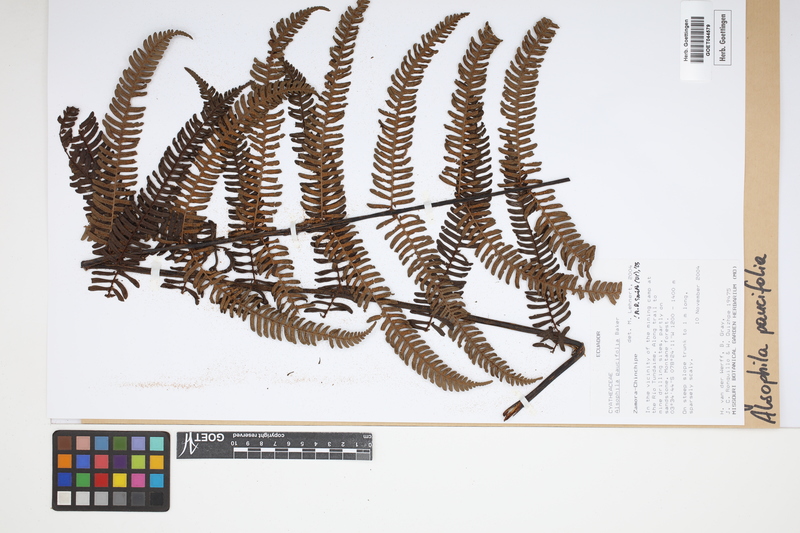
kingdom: Plantae
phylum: Tracheophyta
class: Polypodiopsida
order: Cyatheales
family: Cyatheaceae
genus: Cyathea
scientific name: Cyathea paucifolia
